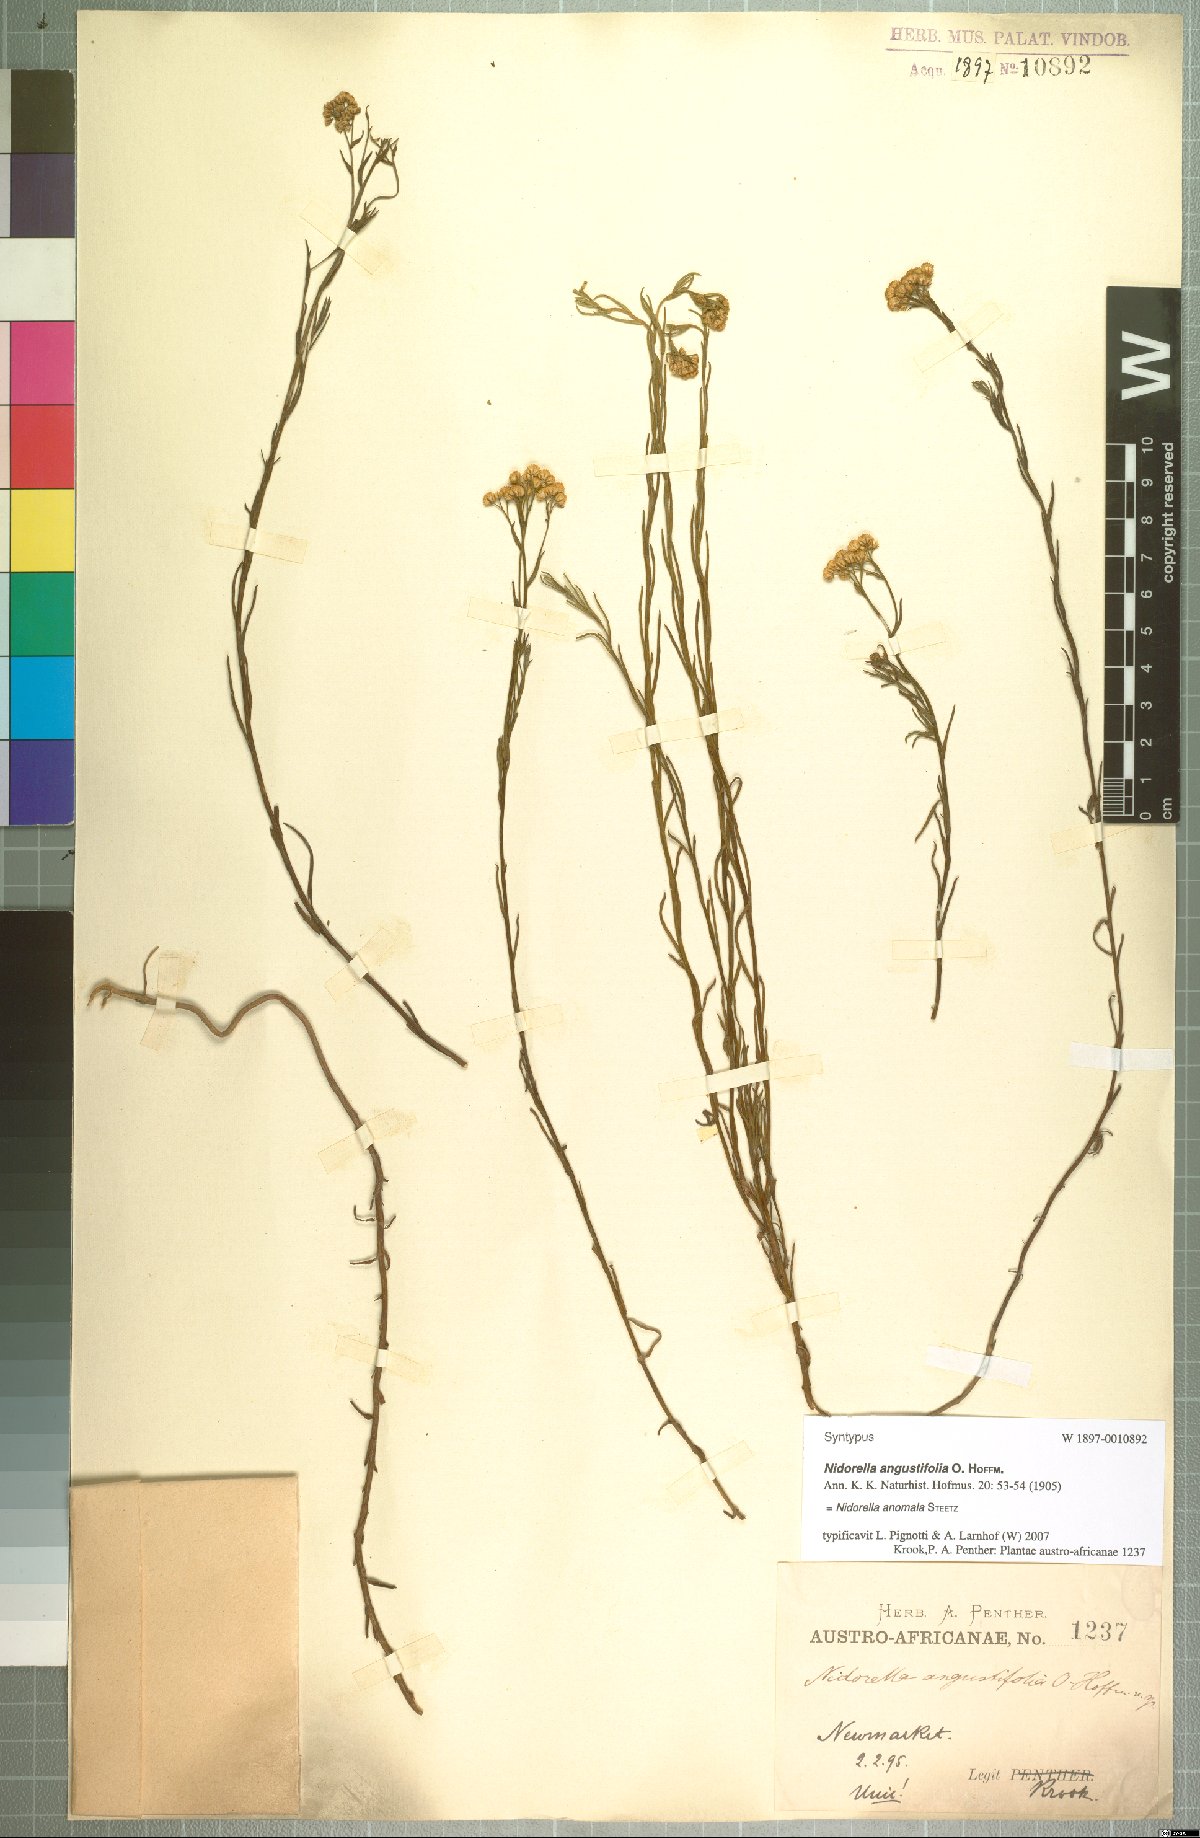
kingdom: Plantae
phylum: Tracheophyta
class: Magnoliopsida
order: Asterales
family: Asteraceae
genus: Nidorella
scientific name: Nidorella anomala
